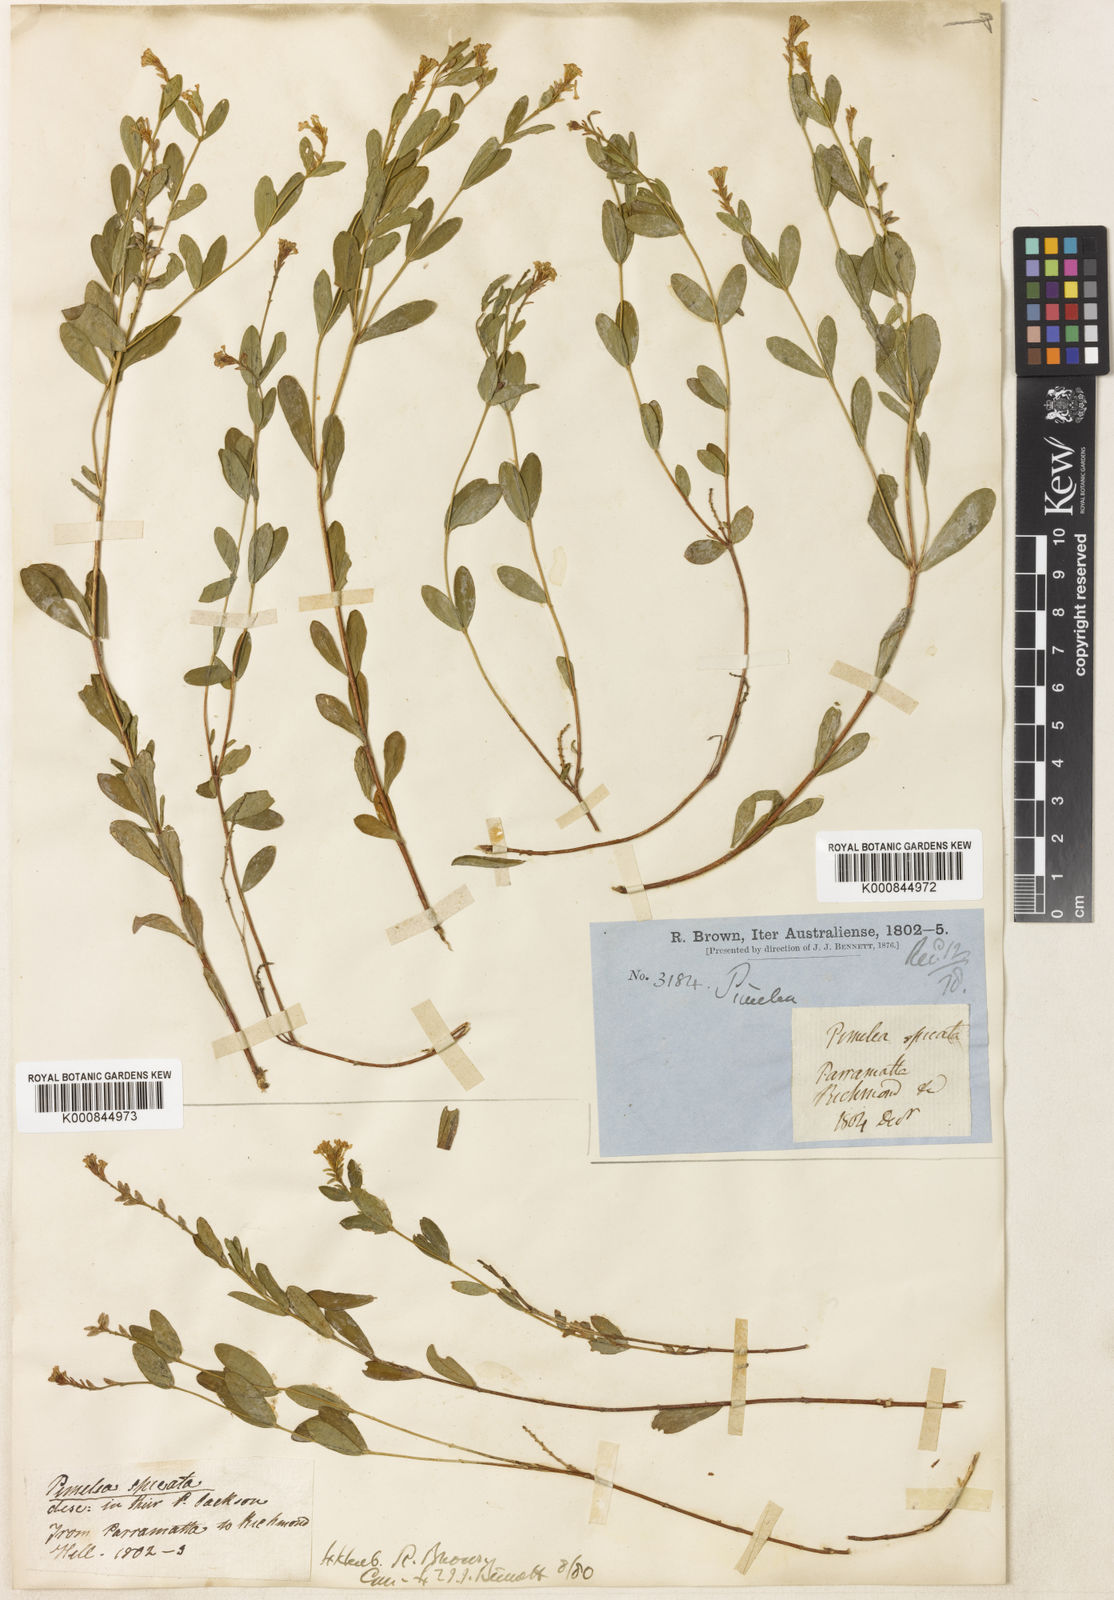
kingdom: Plantae
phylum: Tracheophyta
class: Magnoliopsida
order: Malvales
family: Thymelaeaceae
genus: Pimelea
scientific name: Pimelea spicata
